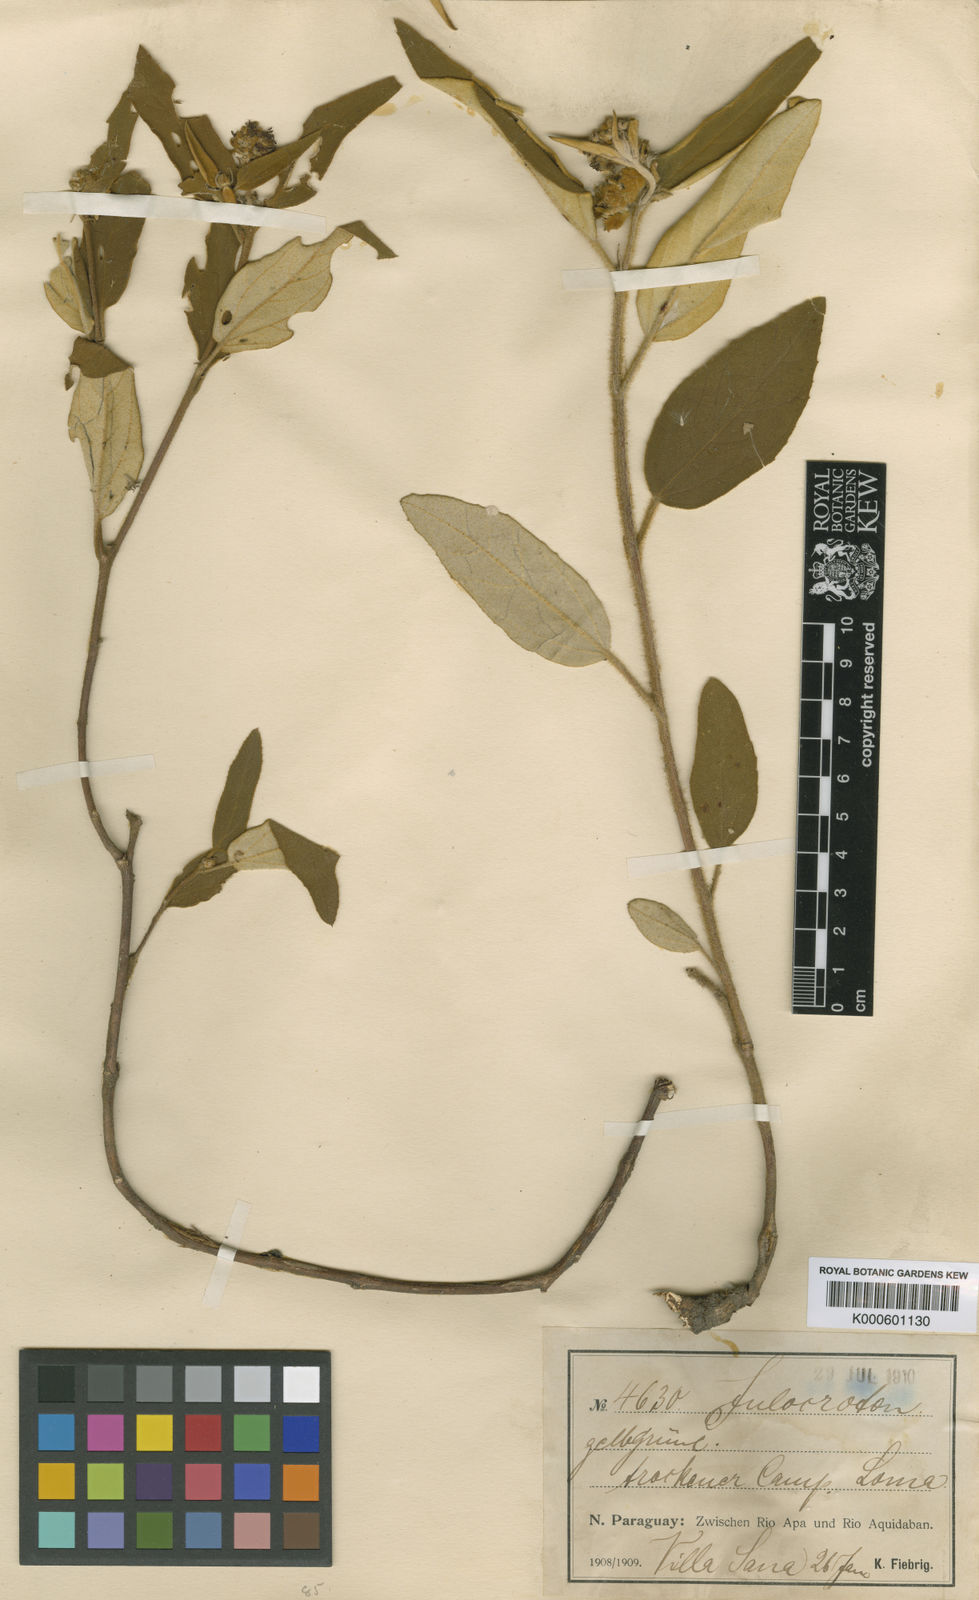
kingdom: Plantae
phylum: Tracheophyta
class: Magnoliopsida
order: Malpighiales
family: Euphorbiaceae
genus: Croton
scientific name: Croton cooperianus
